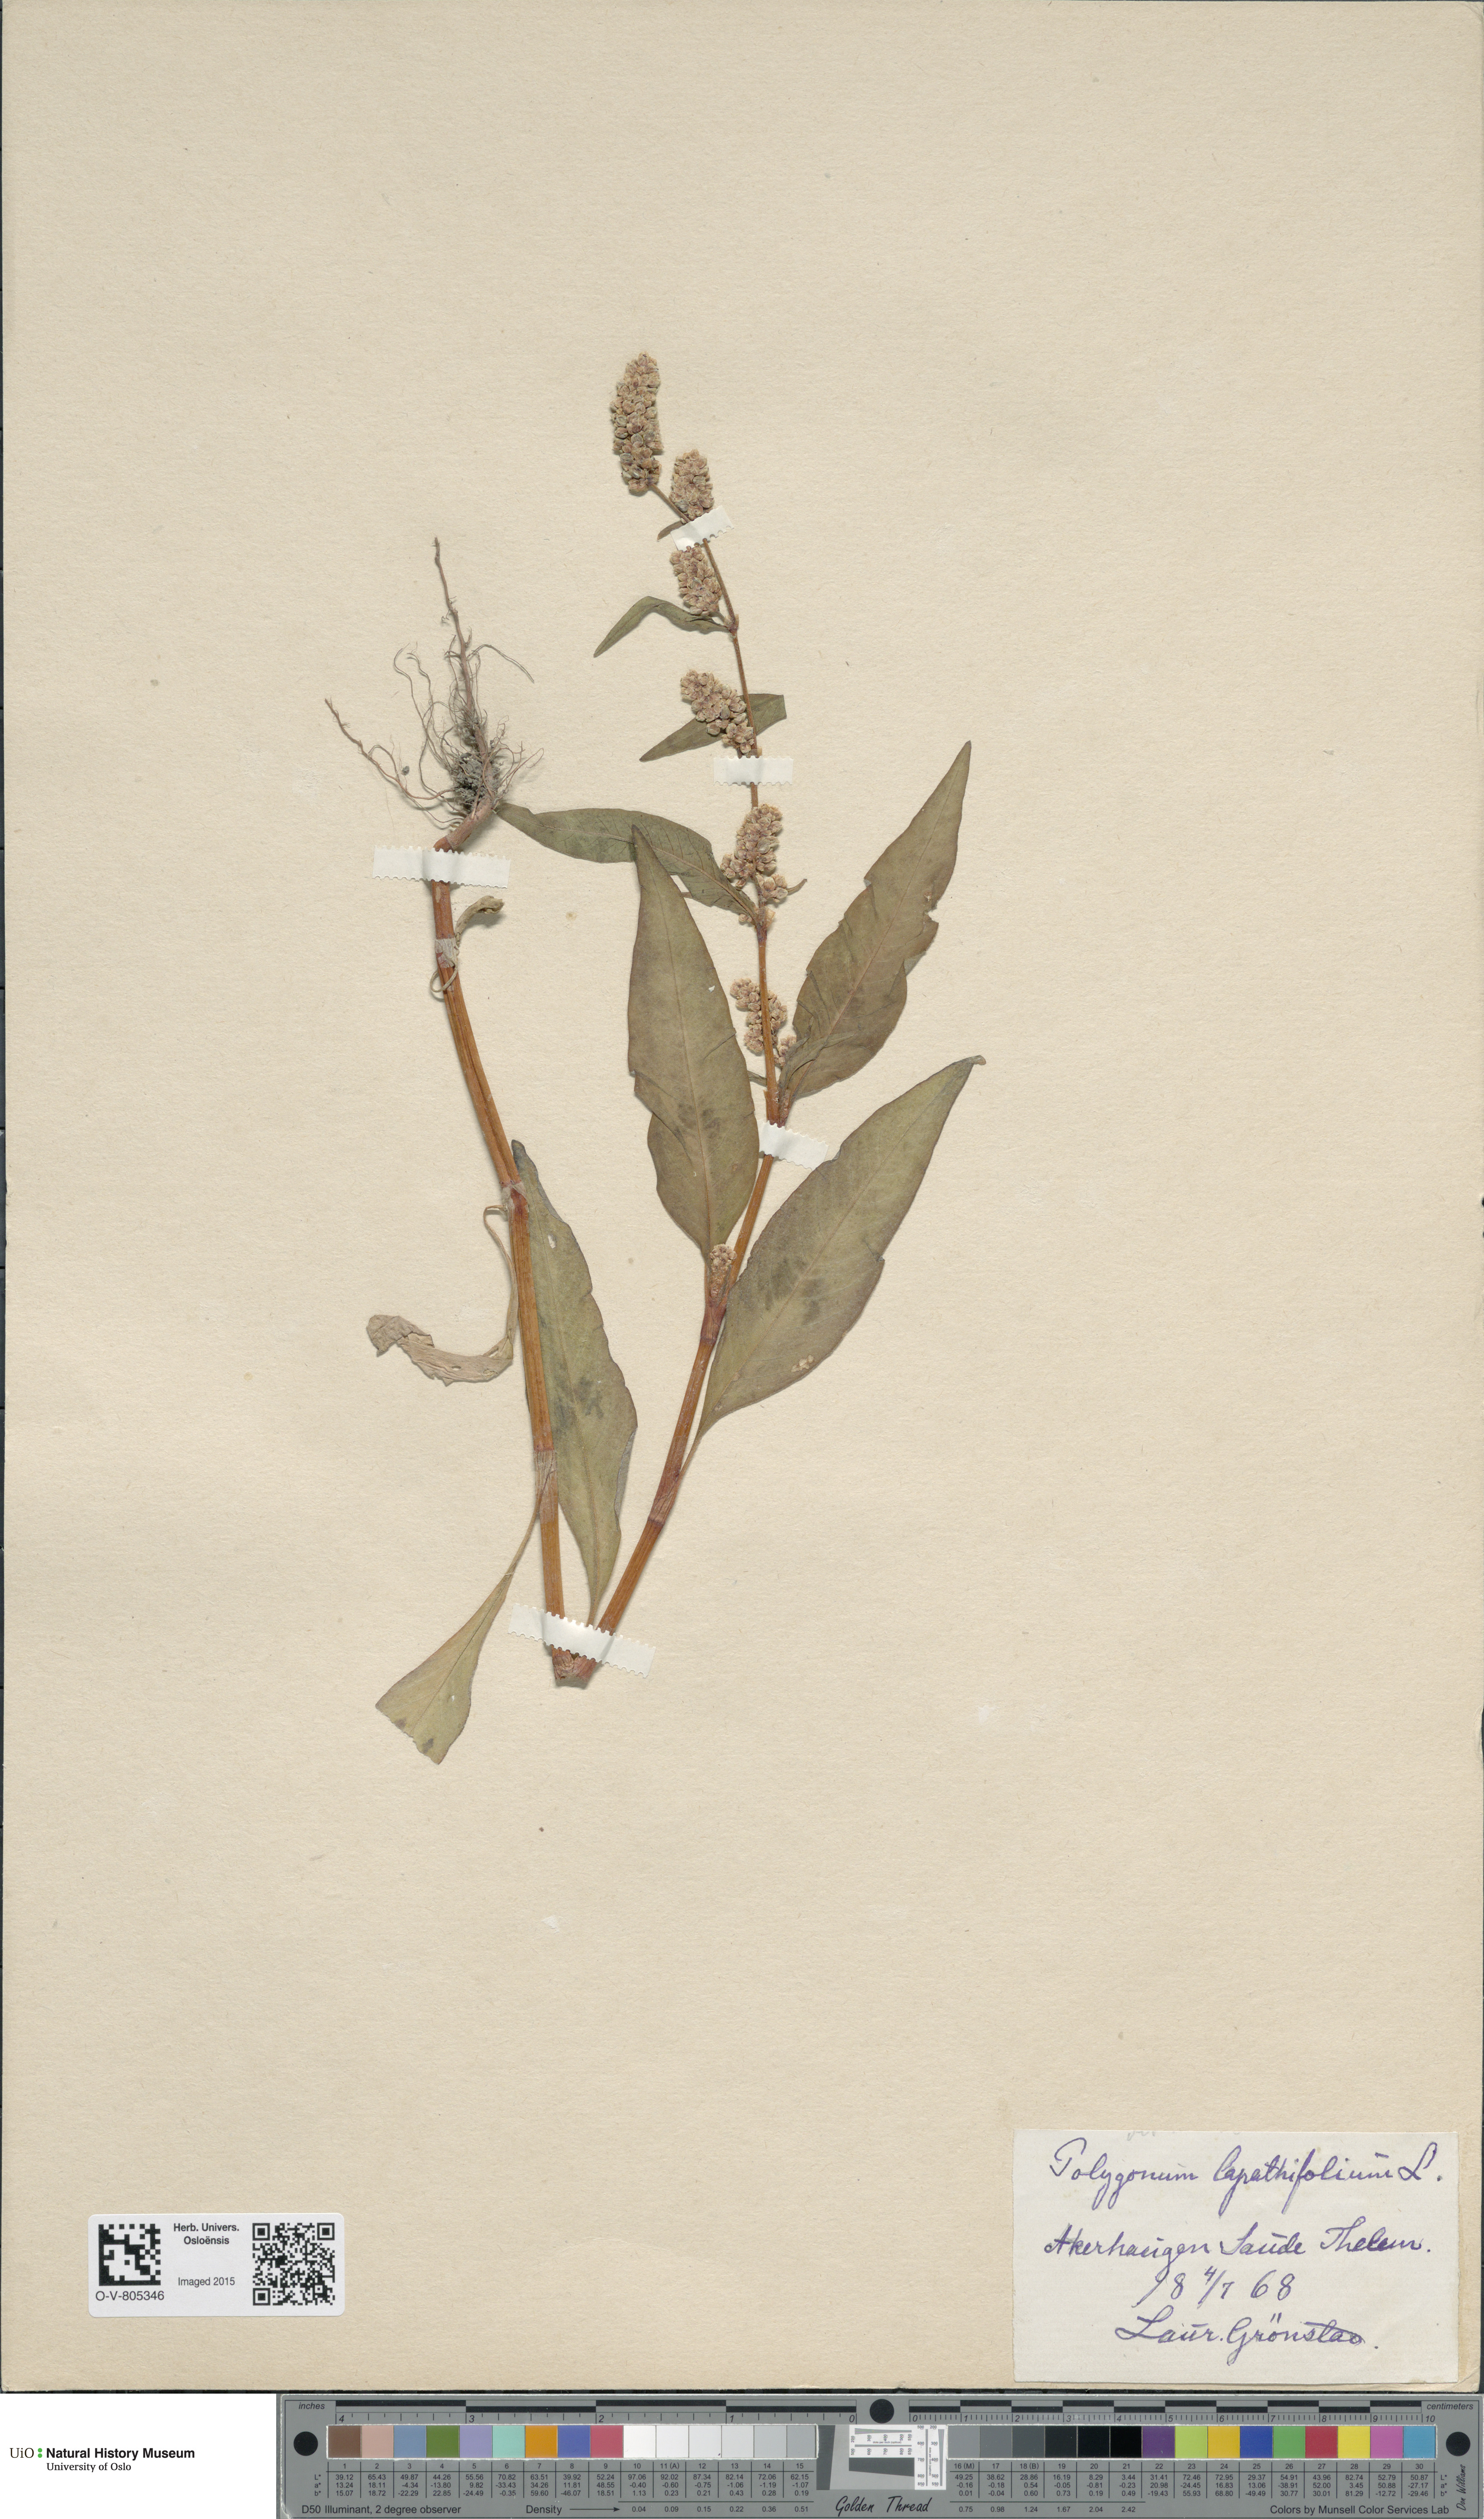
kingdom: Plantae
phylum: Tracheophyta
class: Magnoliopsida
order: Caryophyllales
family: Polygonaceae
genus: Persicaria
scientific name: Persicaria lapathifolia
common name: Curlytop knotweed
